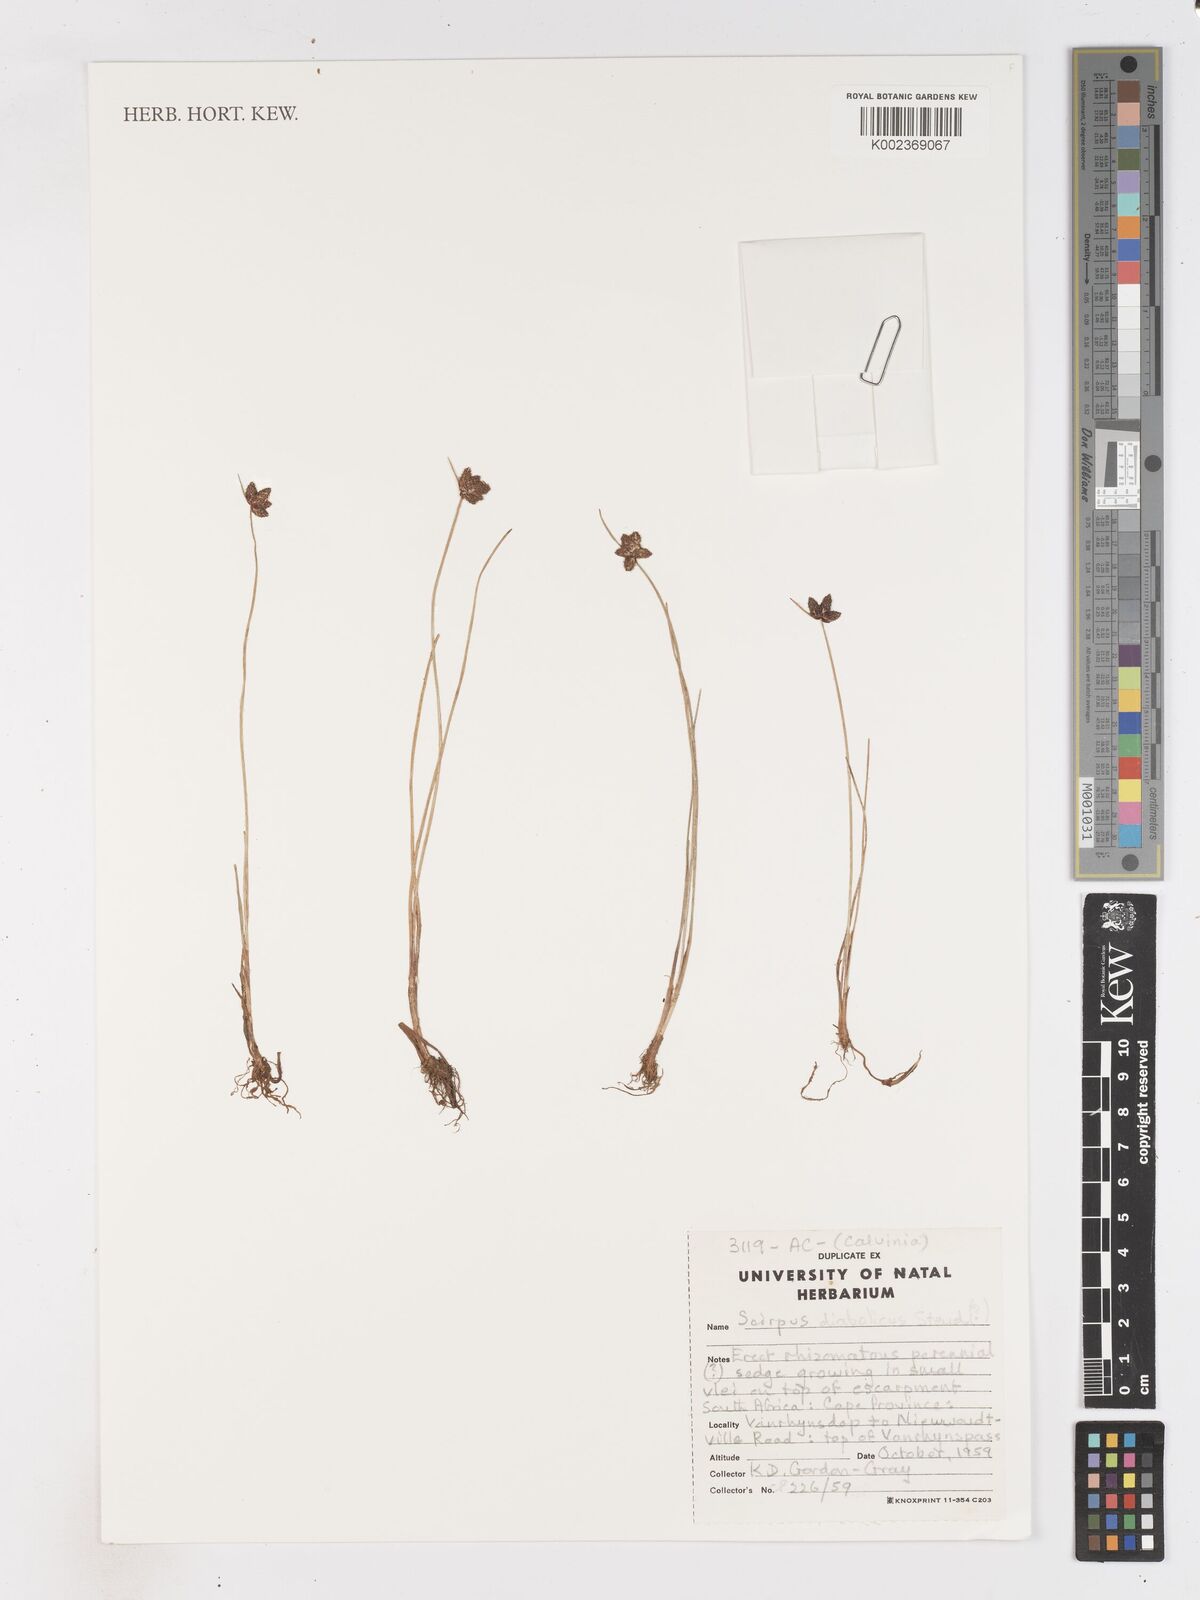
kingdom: Plantae
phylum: Tracheophyta
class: Liliopsida
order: Poales
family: Cyperaceae
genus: Isolepis
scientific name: Isolepis diabolica
